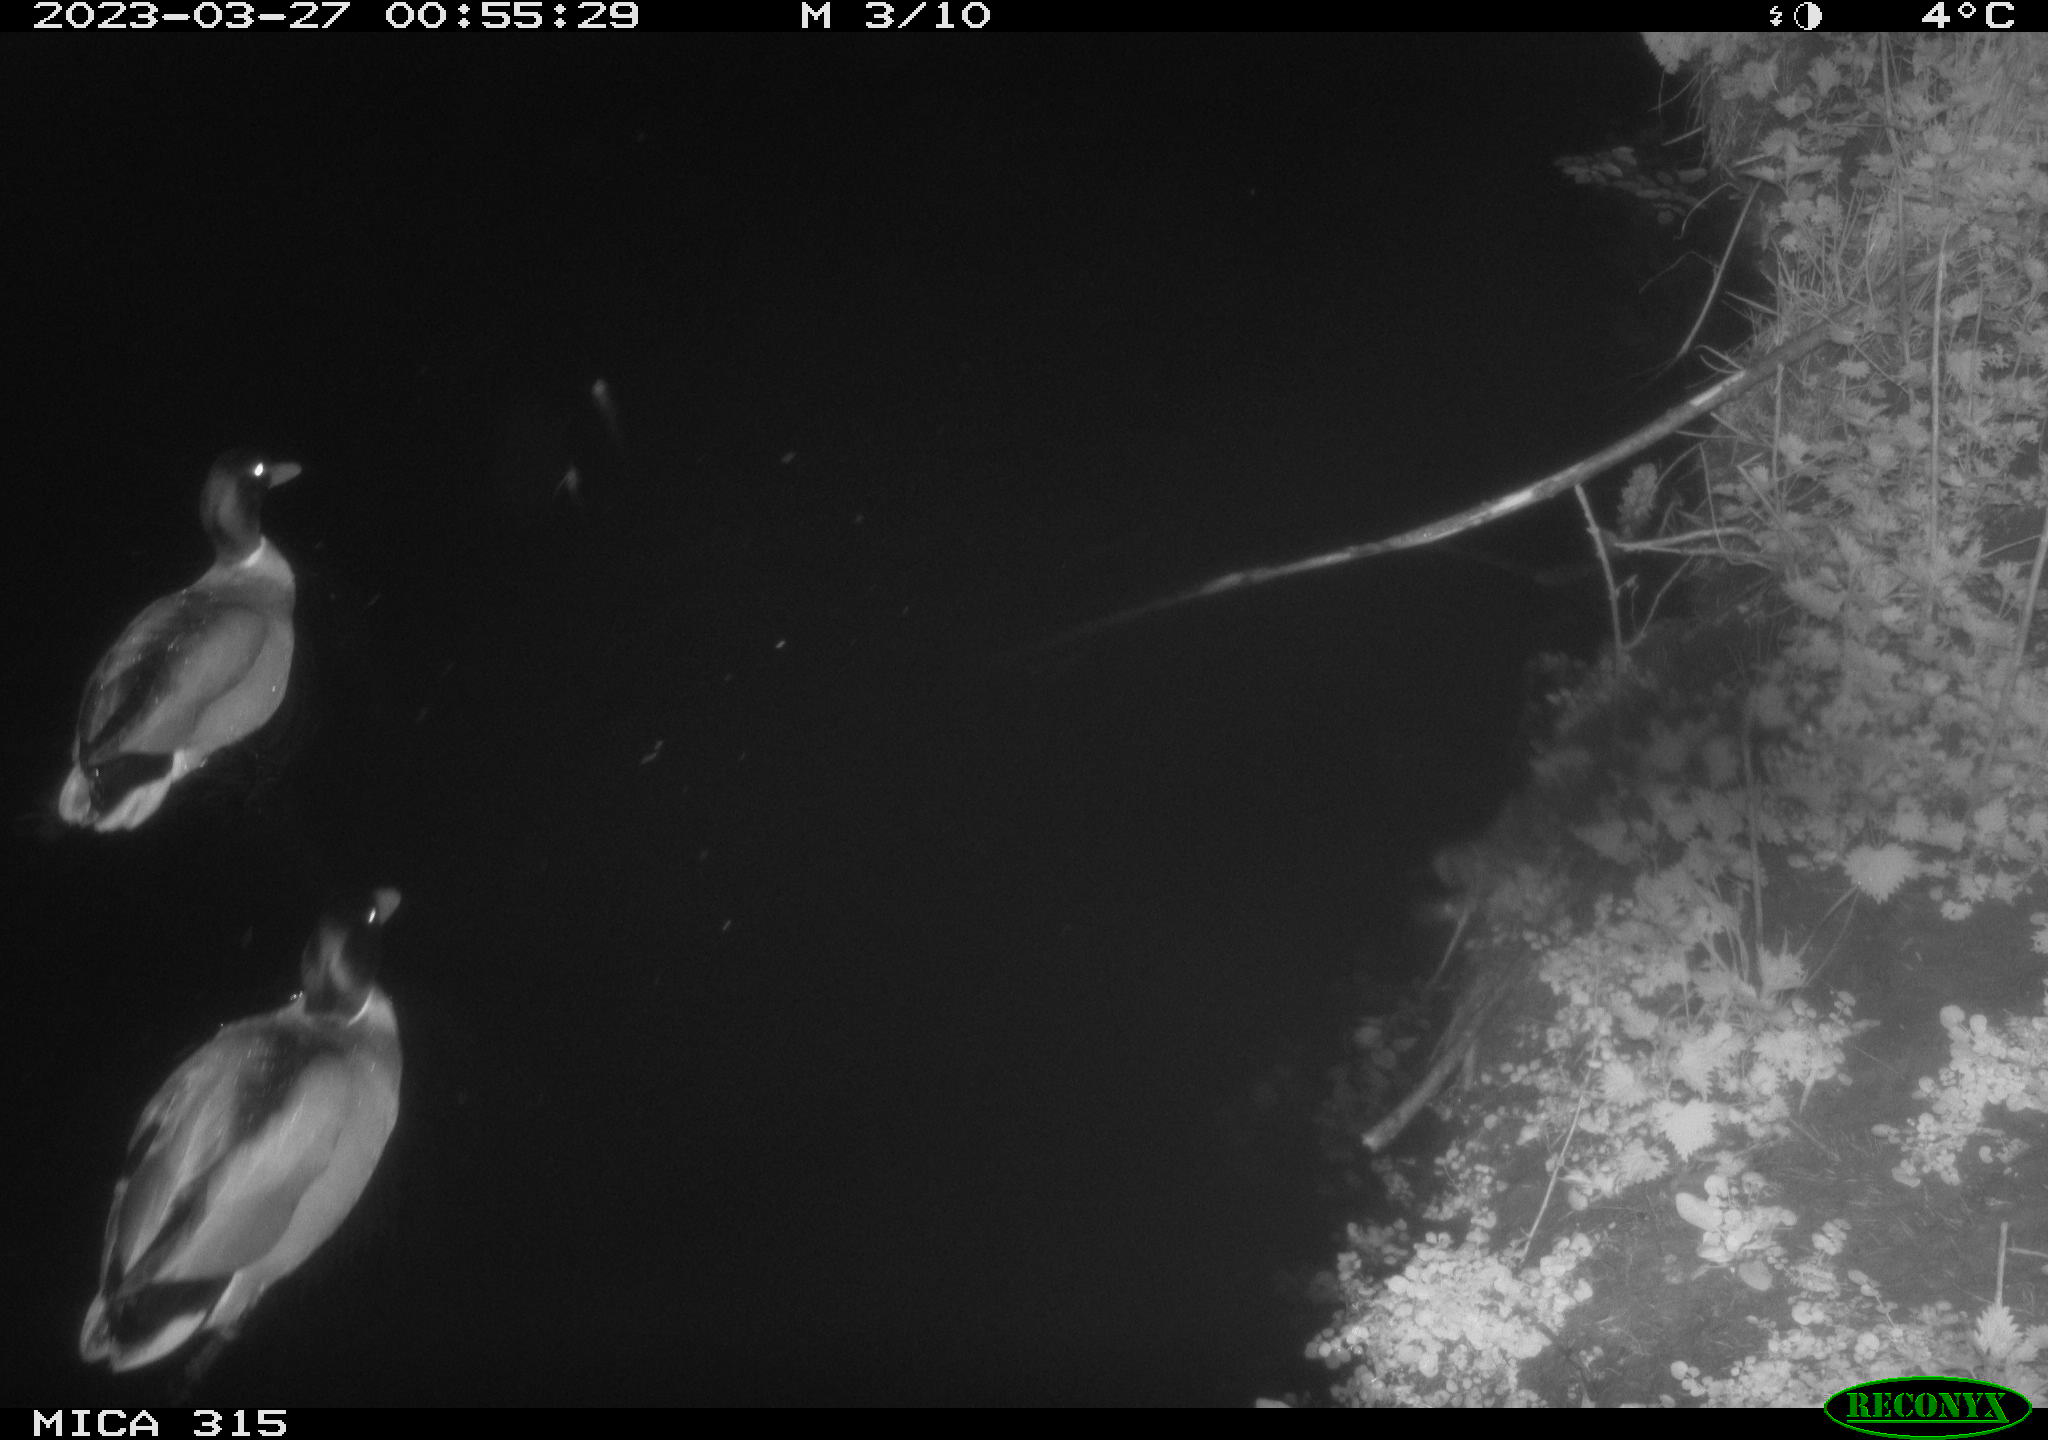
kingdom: Animalia
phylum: Chordata
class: Aves
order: Anseriformes
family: Anatidae
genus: Anas
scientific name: Anas
